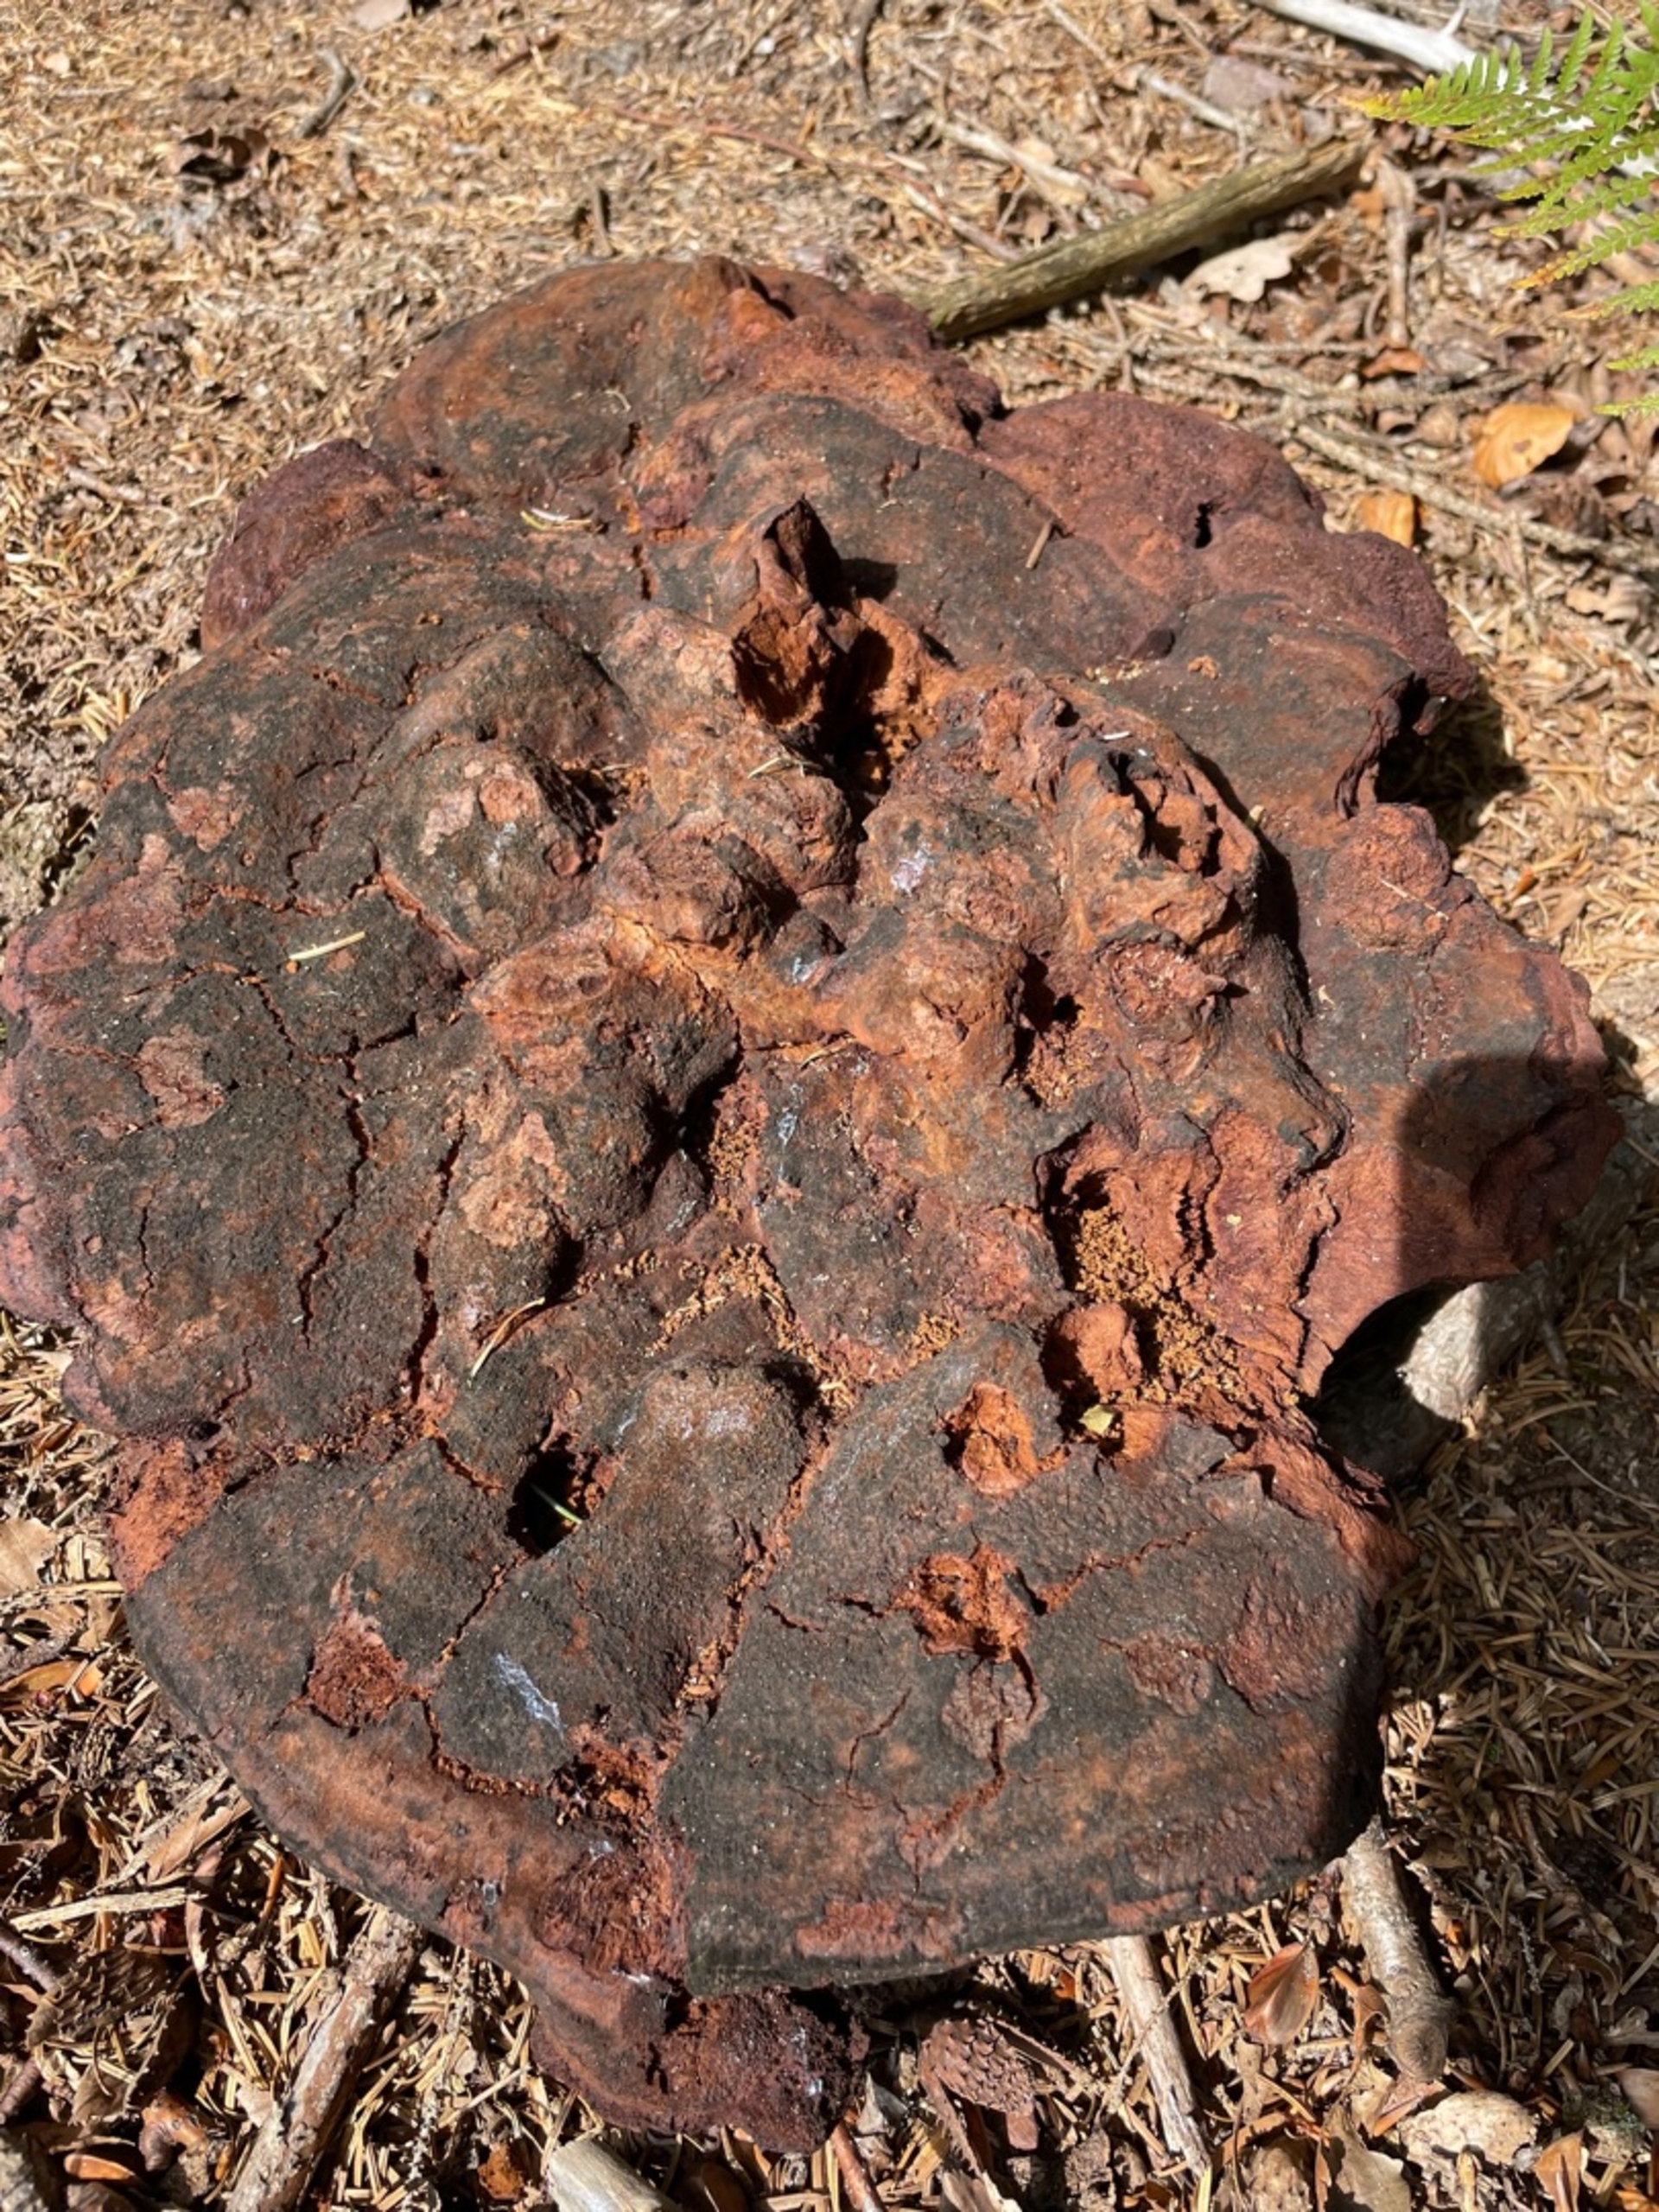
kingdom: Fungi
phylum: Basidiomycota
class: Agaricomycetes
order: Polyporales
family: Laetiporaceae
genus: Phaeolus
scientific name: Phaeolus schweinitzii
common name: Brunporesvamp
